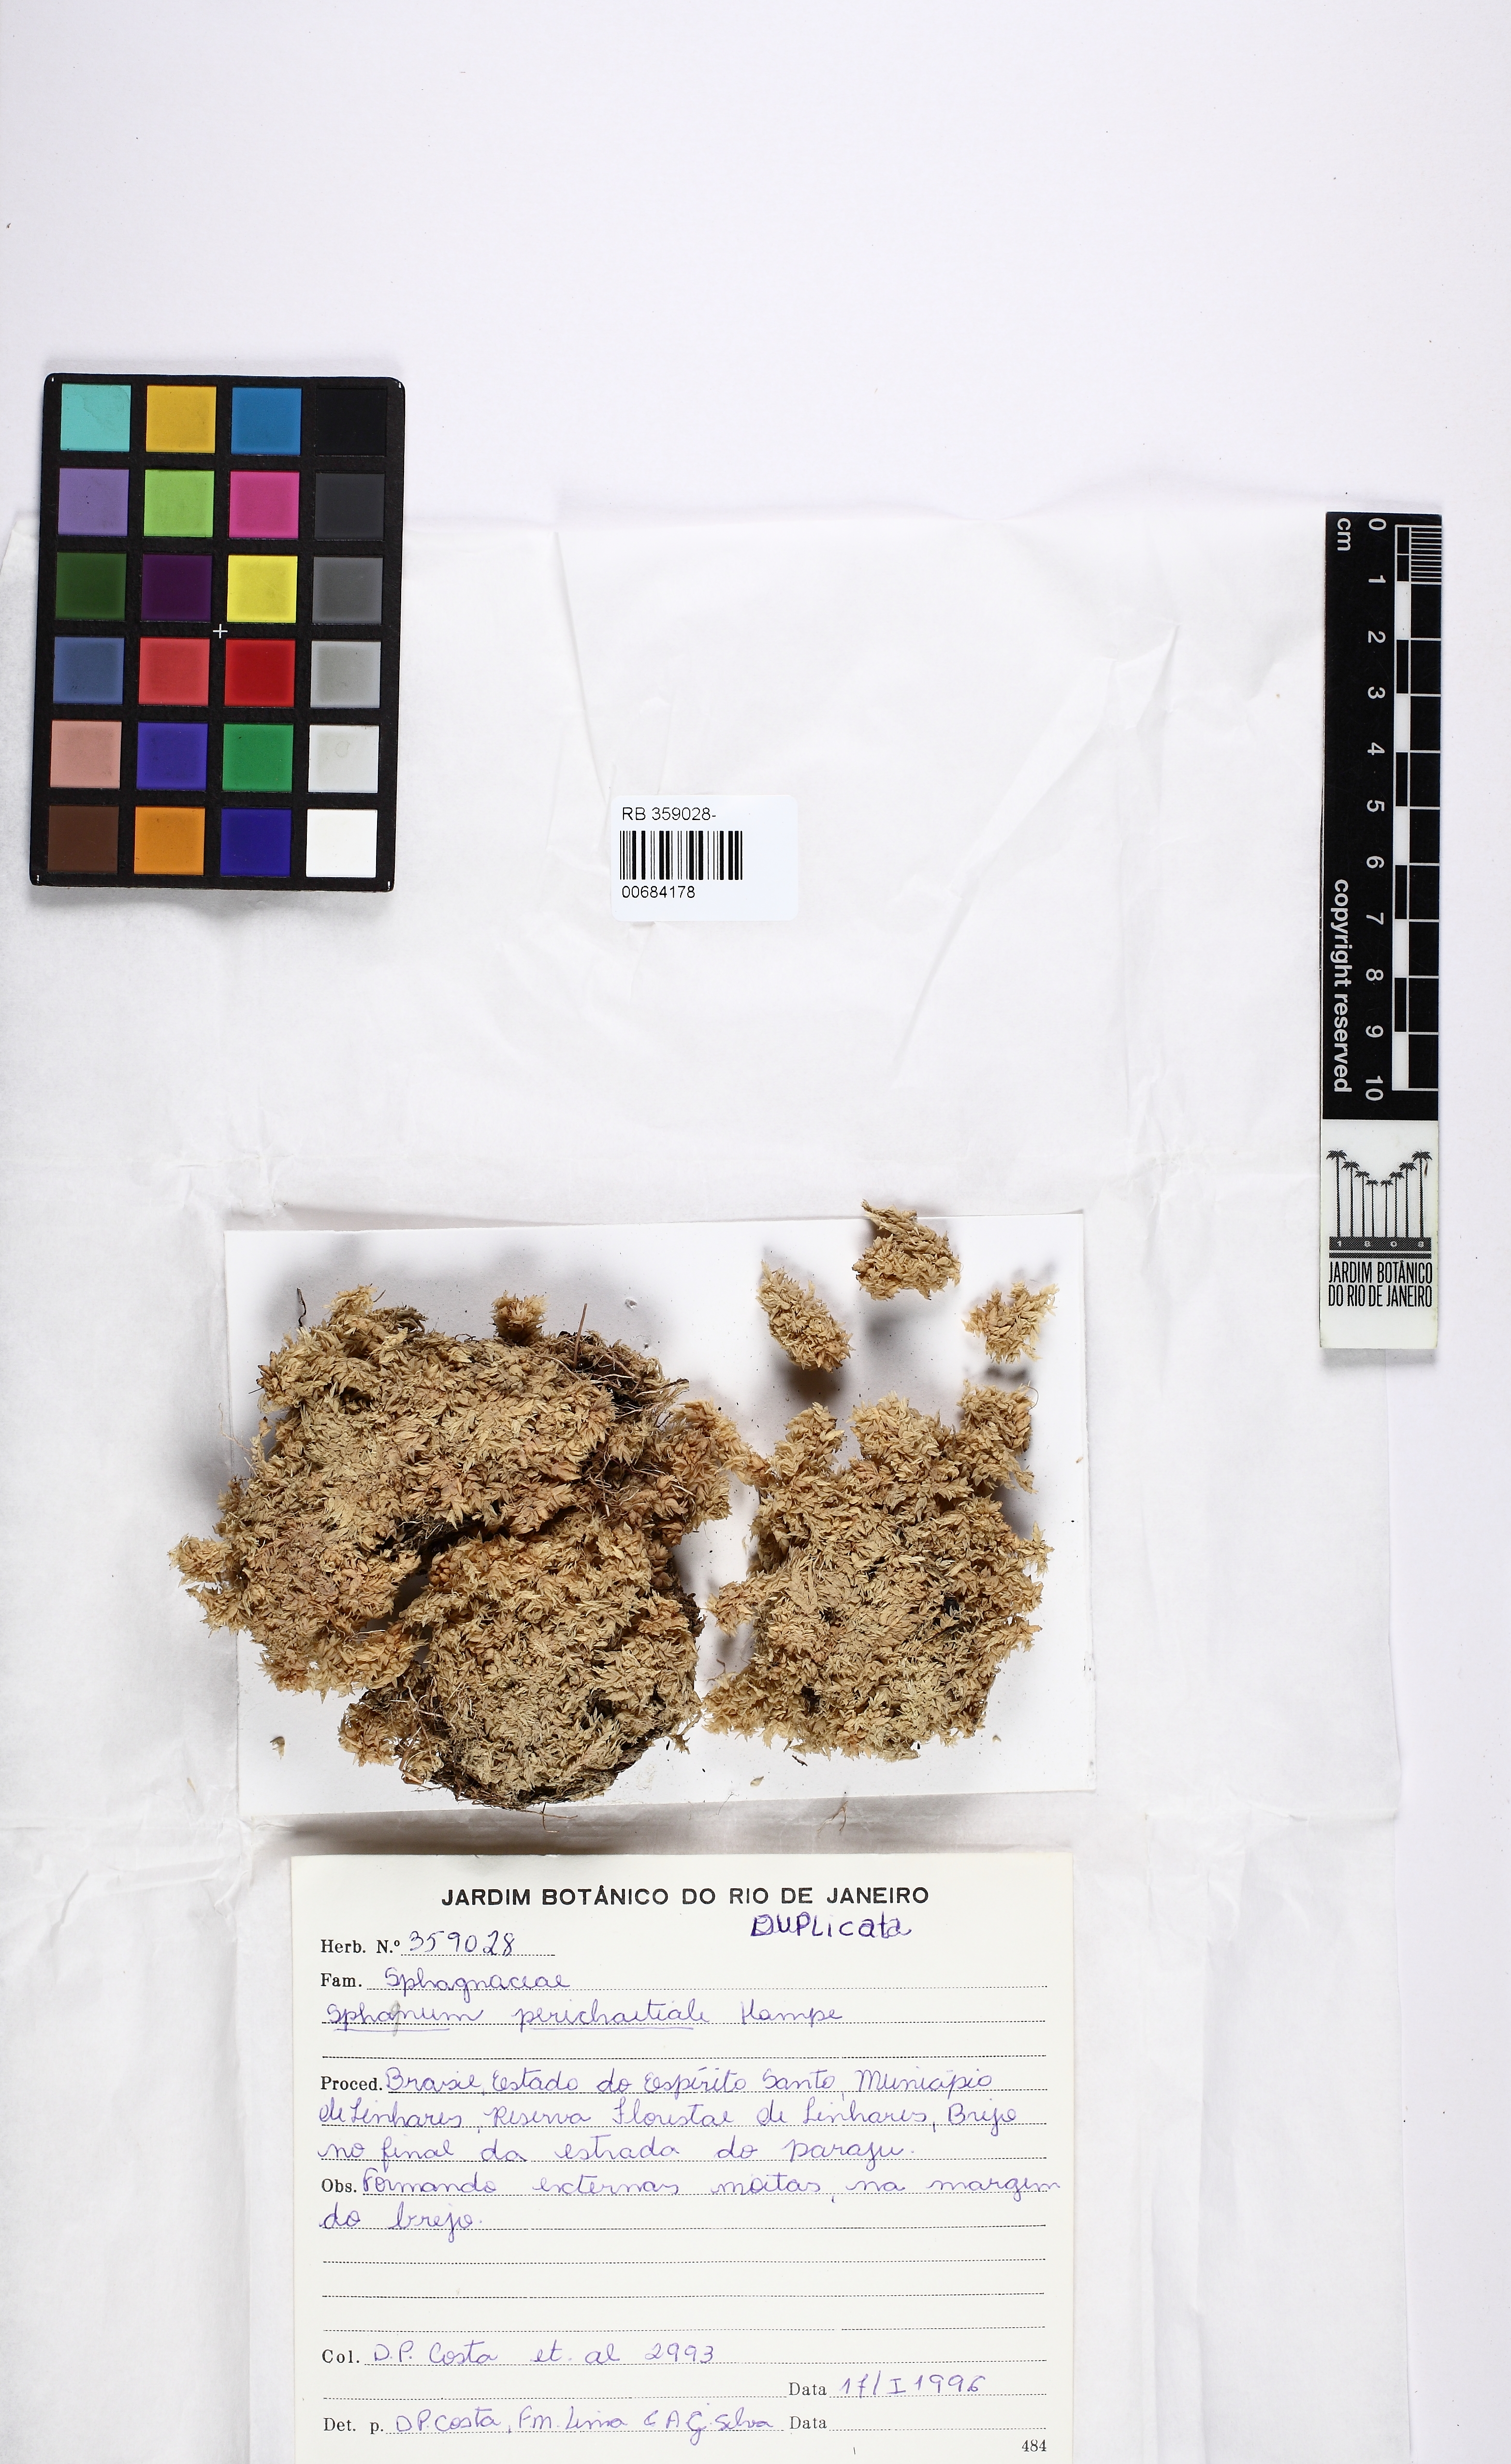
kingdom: Plantae
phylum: Bryophyta
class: Sphagnopsida
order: Sphagnales
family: Sphagnaceae
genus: Sphagnum
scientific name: Sphagnum perichaetiale
